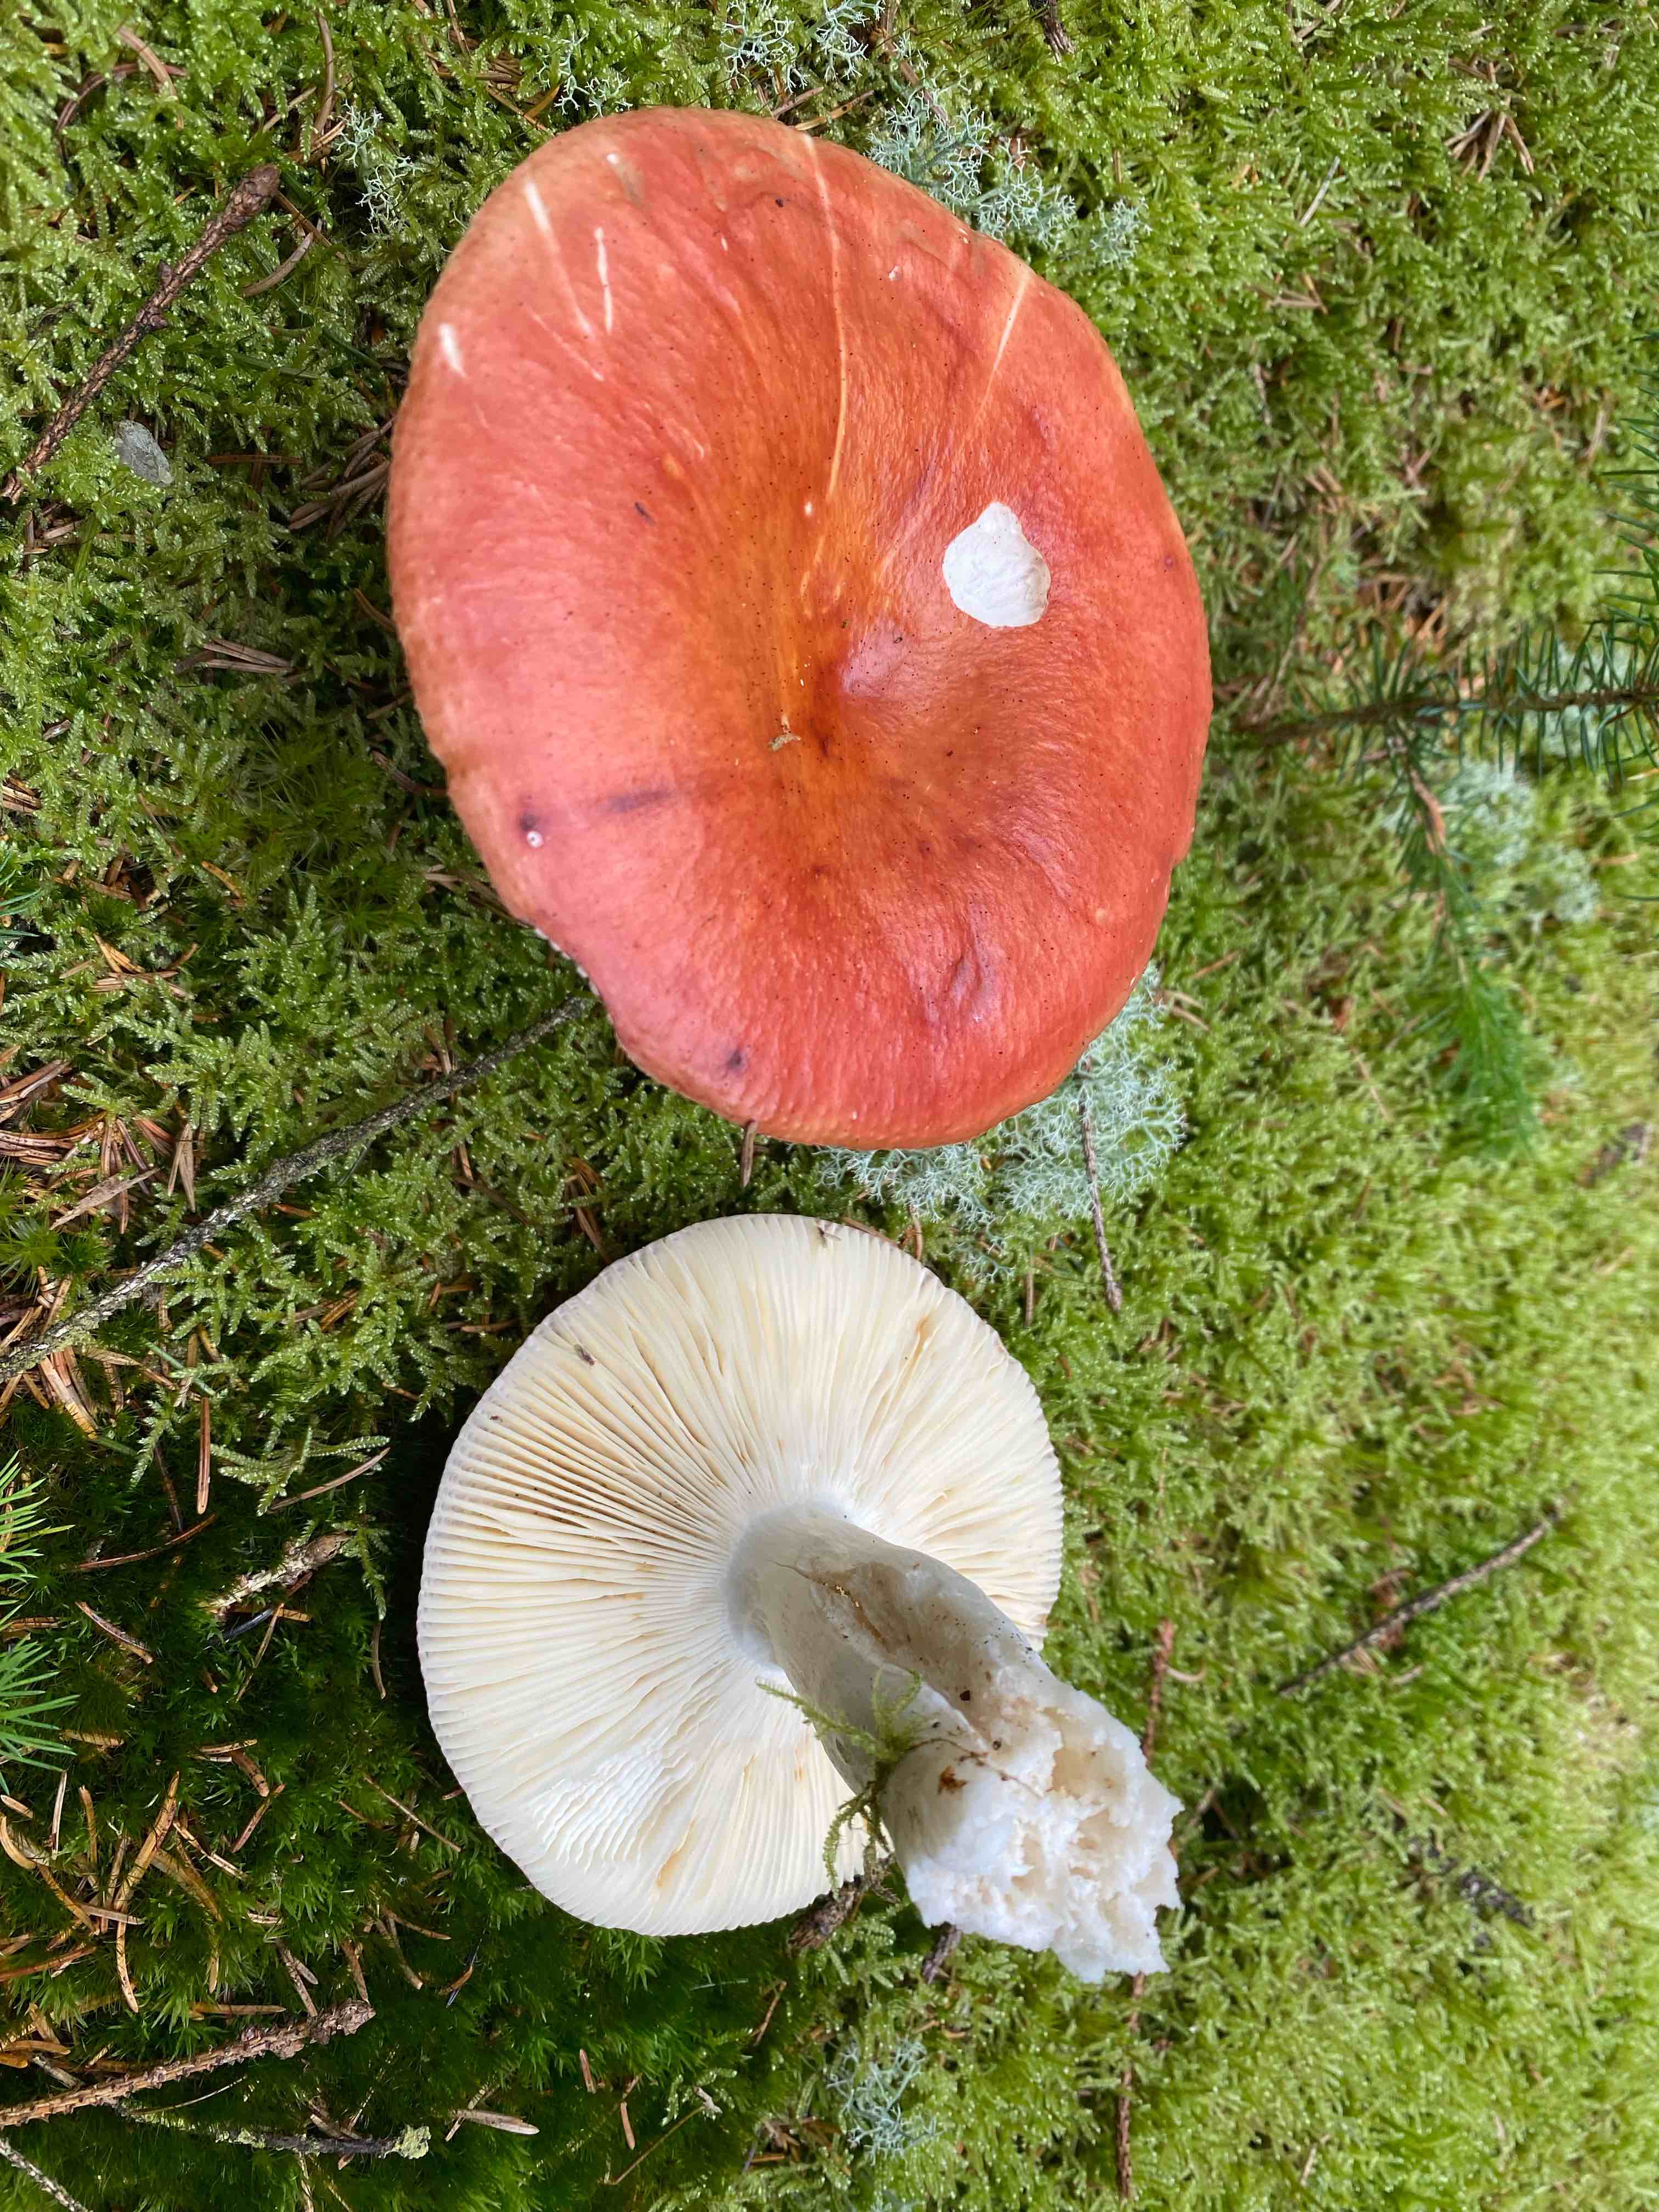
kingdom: Fungi
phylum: Basidiomycota
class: Agaricomycetes
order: Russulales
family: Russulaceae
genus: Russula
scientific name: Russula
